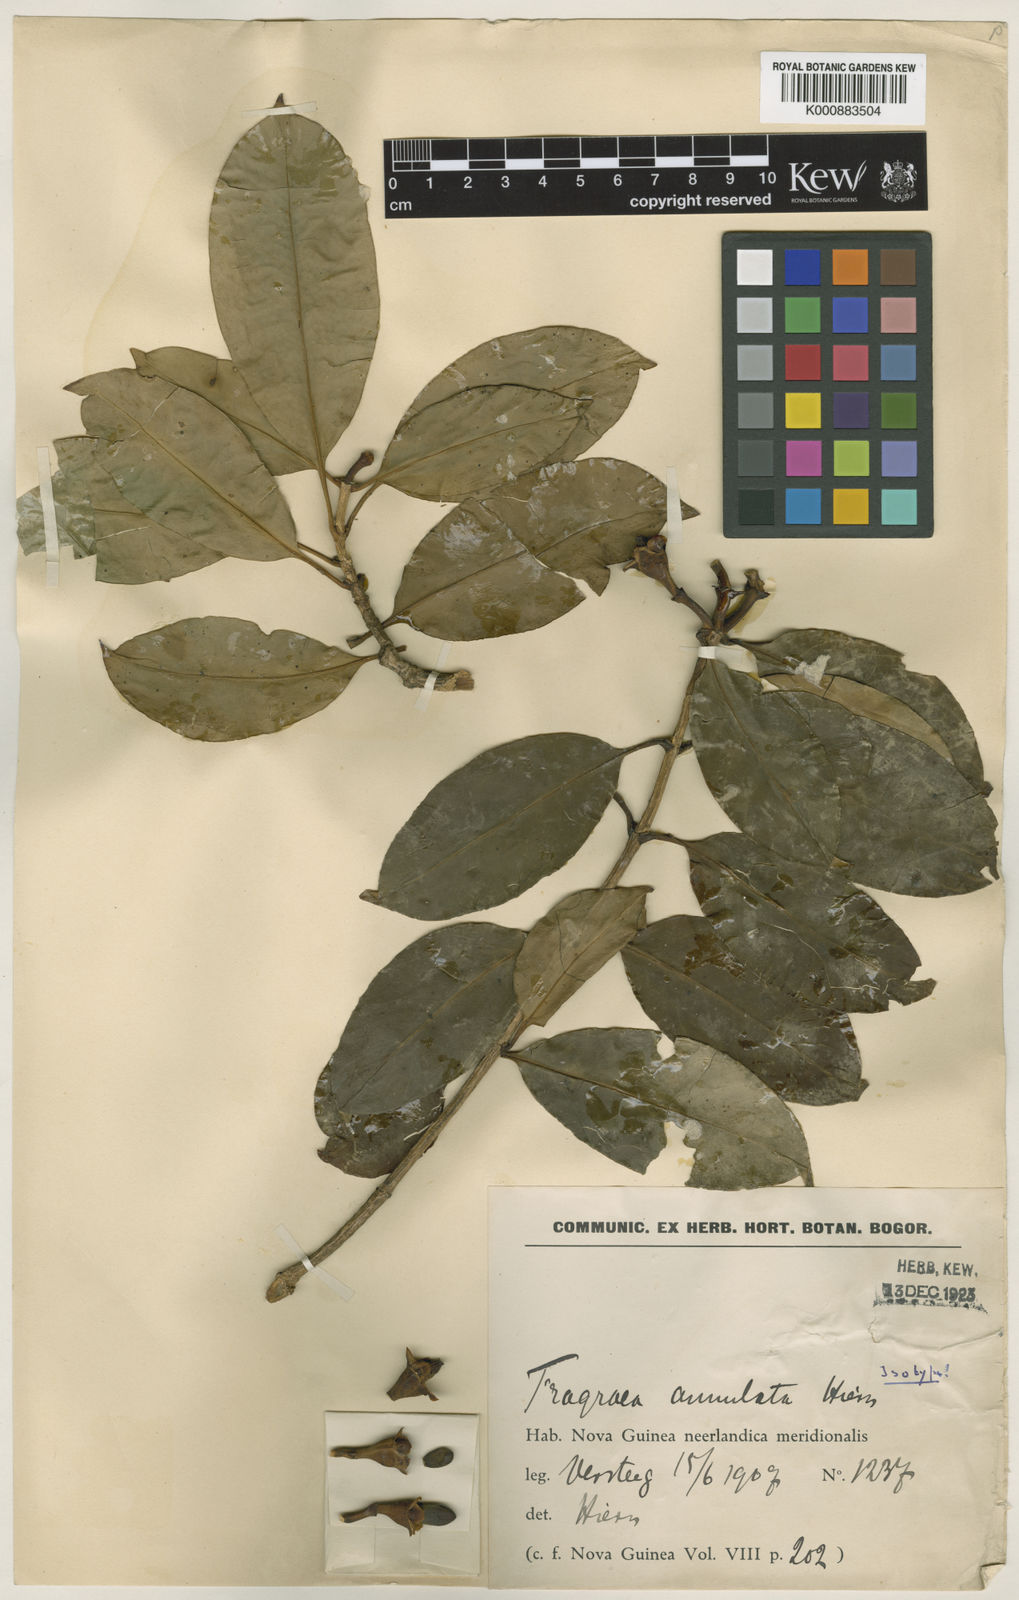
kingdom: Plantae
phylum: Tracheophyta
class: Magnoliopsida
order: Gentianales
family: Gentianaceae
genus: Fagraea
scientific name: Fagraea annulata
